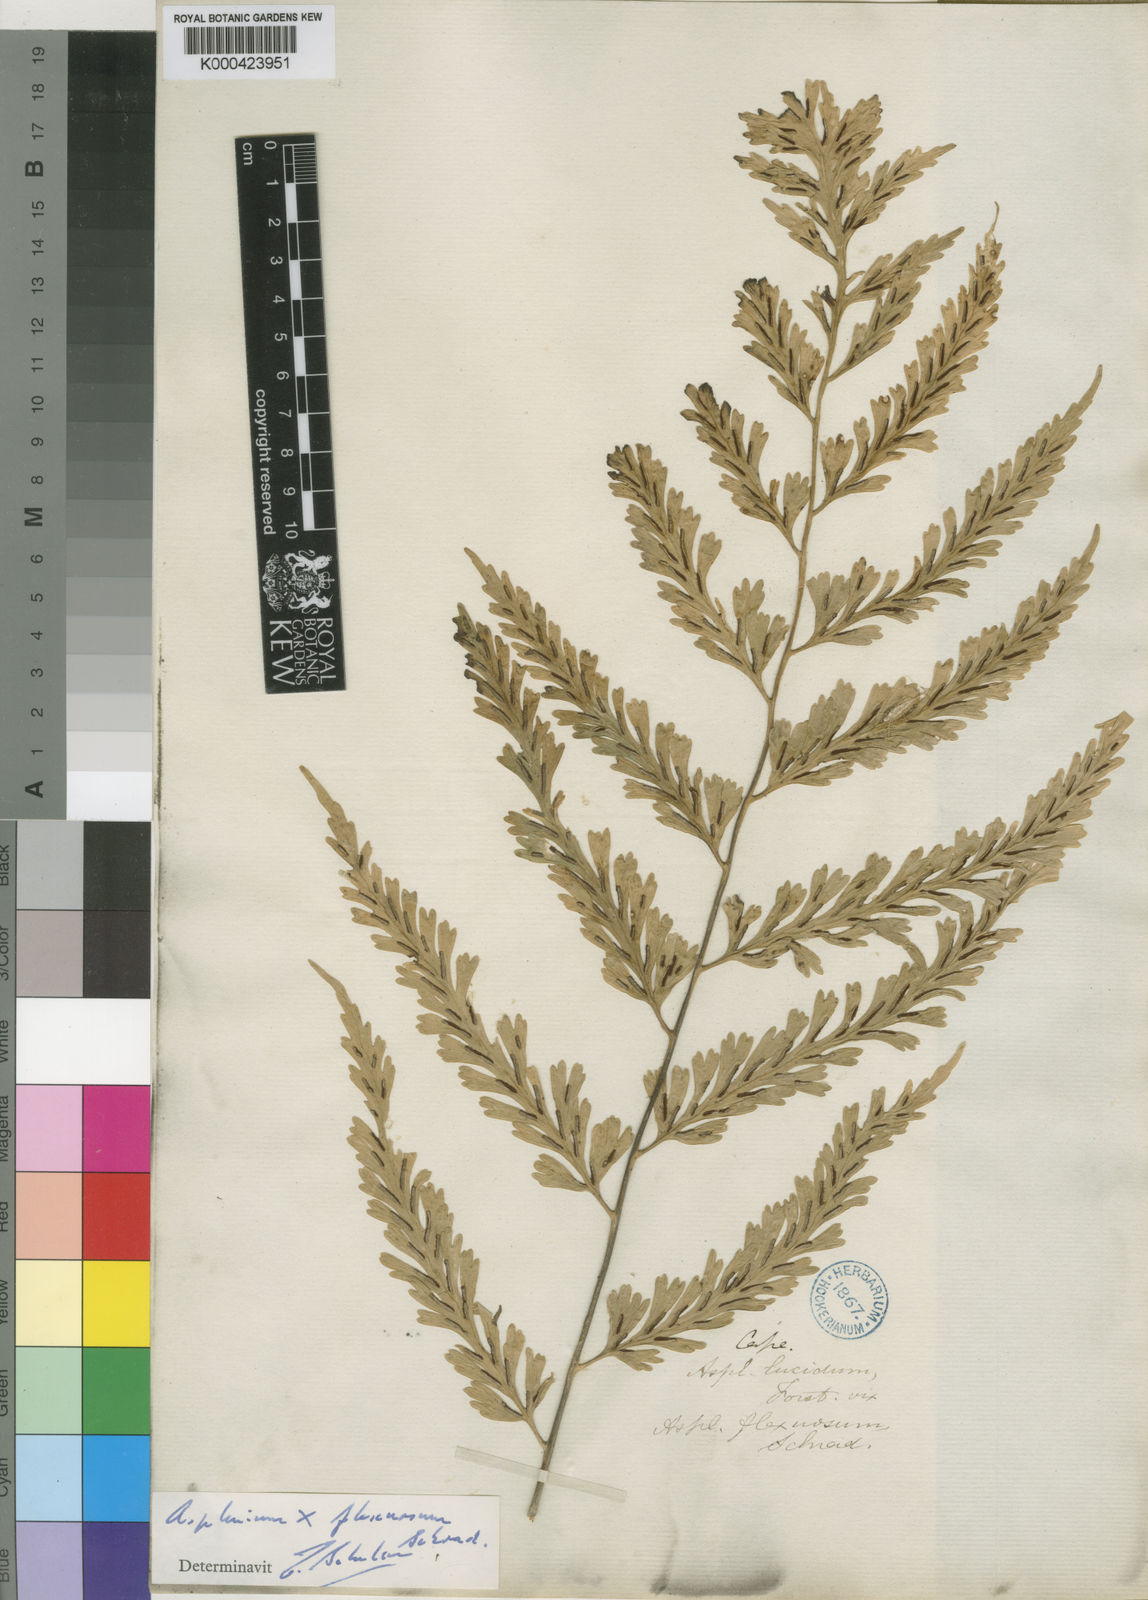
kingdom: Plantae
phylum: Tracheophyta
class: Polypodiopsida
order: Polypodiales
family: Aspleniaceae
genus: Asplenium
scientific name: Asplenium flexuosum
